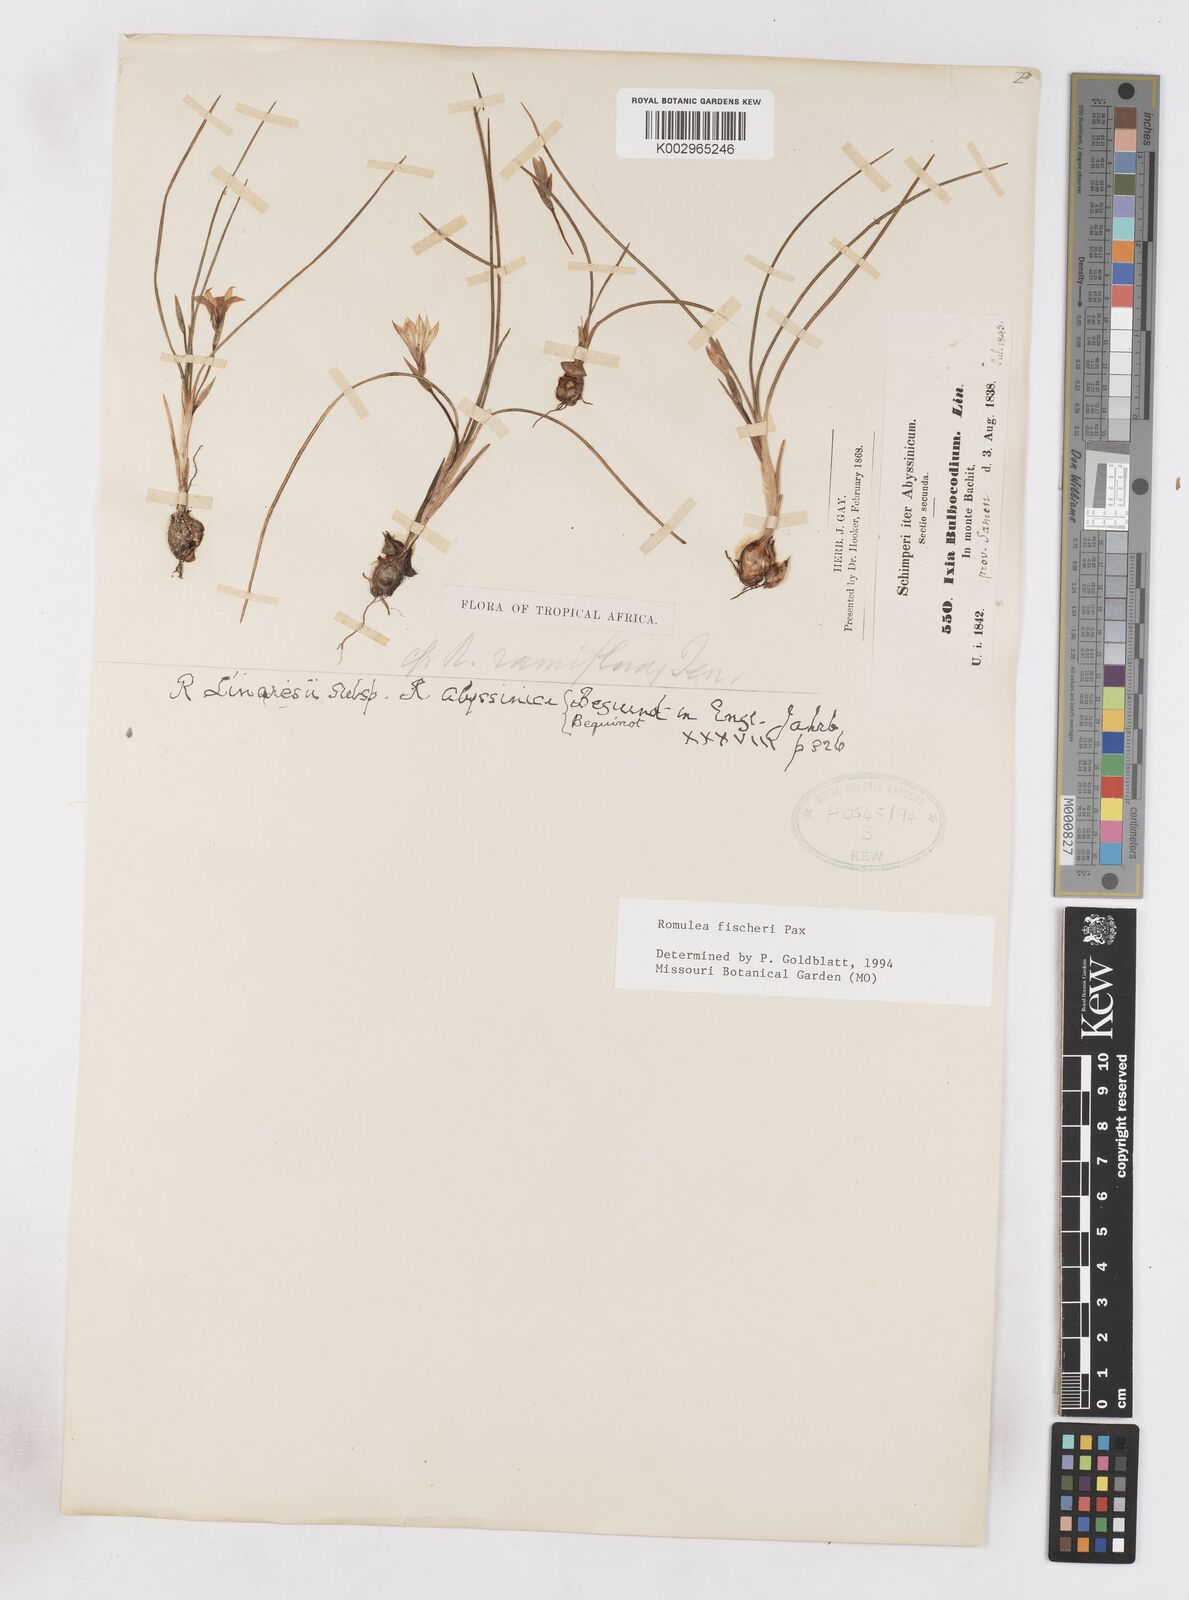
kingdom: Plantae
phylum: Tracheophyta
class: Liliopsida
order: Asparagales
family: Iridaceae
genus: Romulea
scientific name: Romulea fischeri
